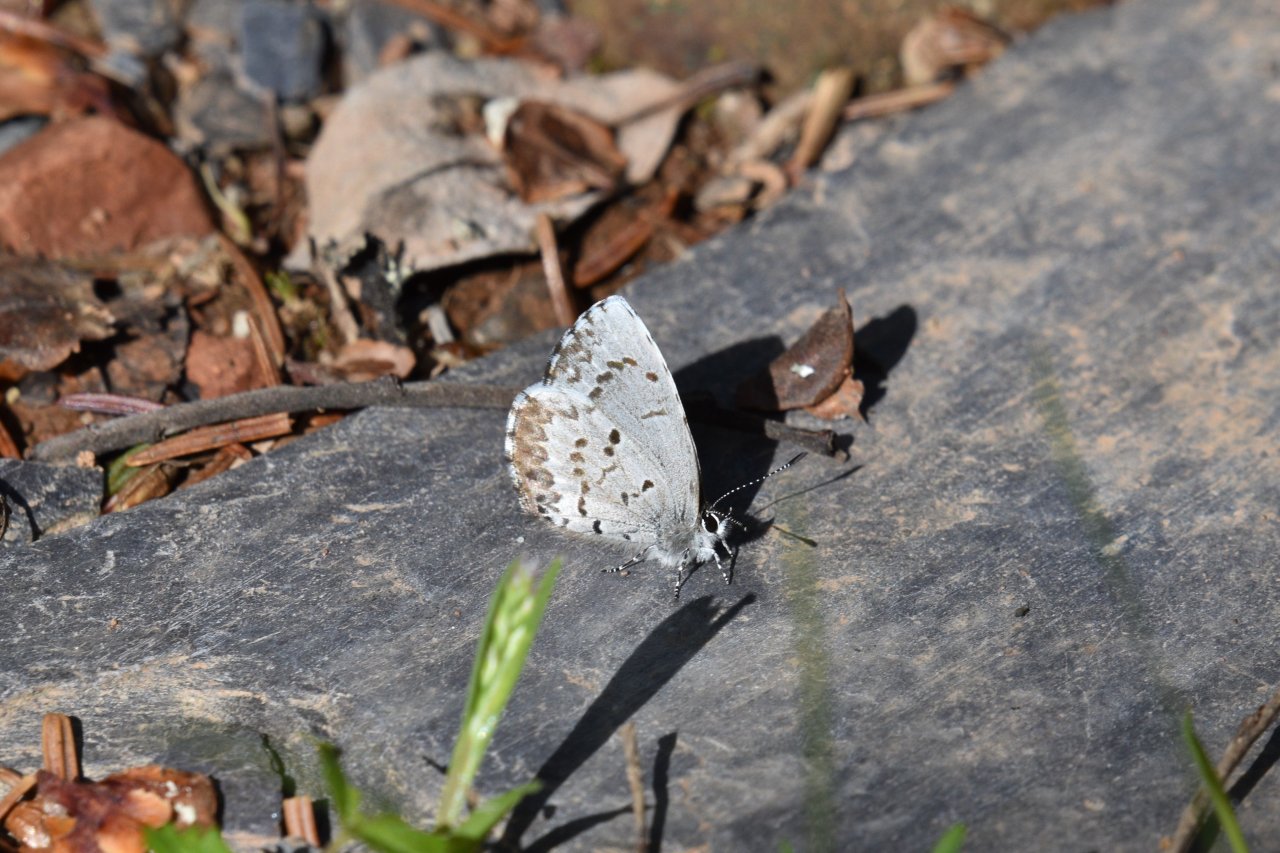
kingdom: Animalia
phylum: Arthropoda
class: Insecta
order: Lepidoptera
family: Lycaenidae
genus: Celastrina
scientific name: Celastrina lucia
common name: Northern Spring Azure
